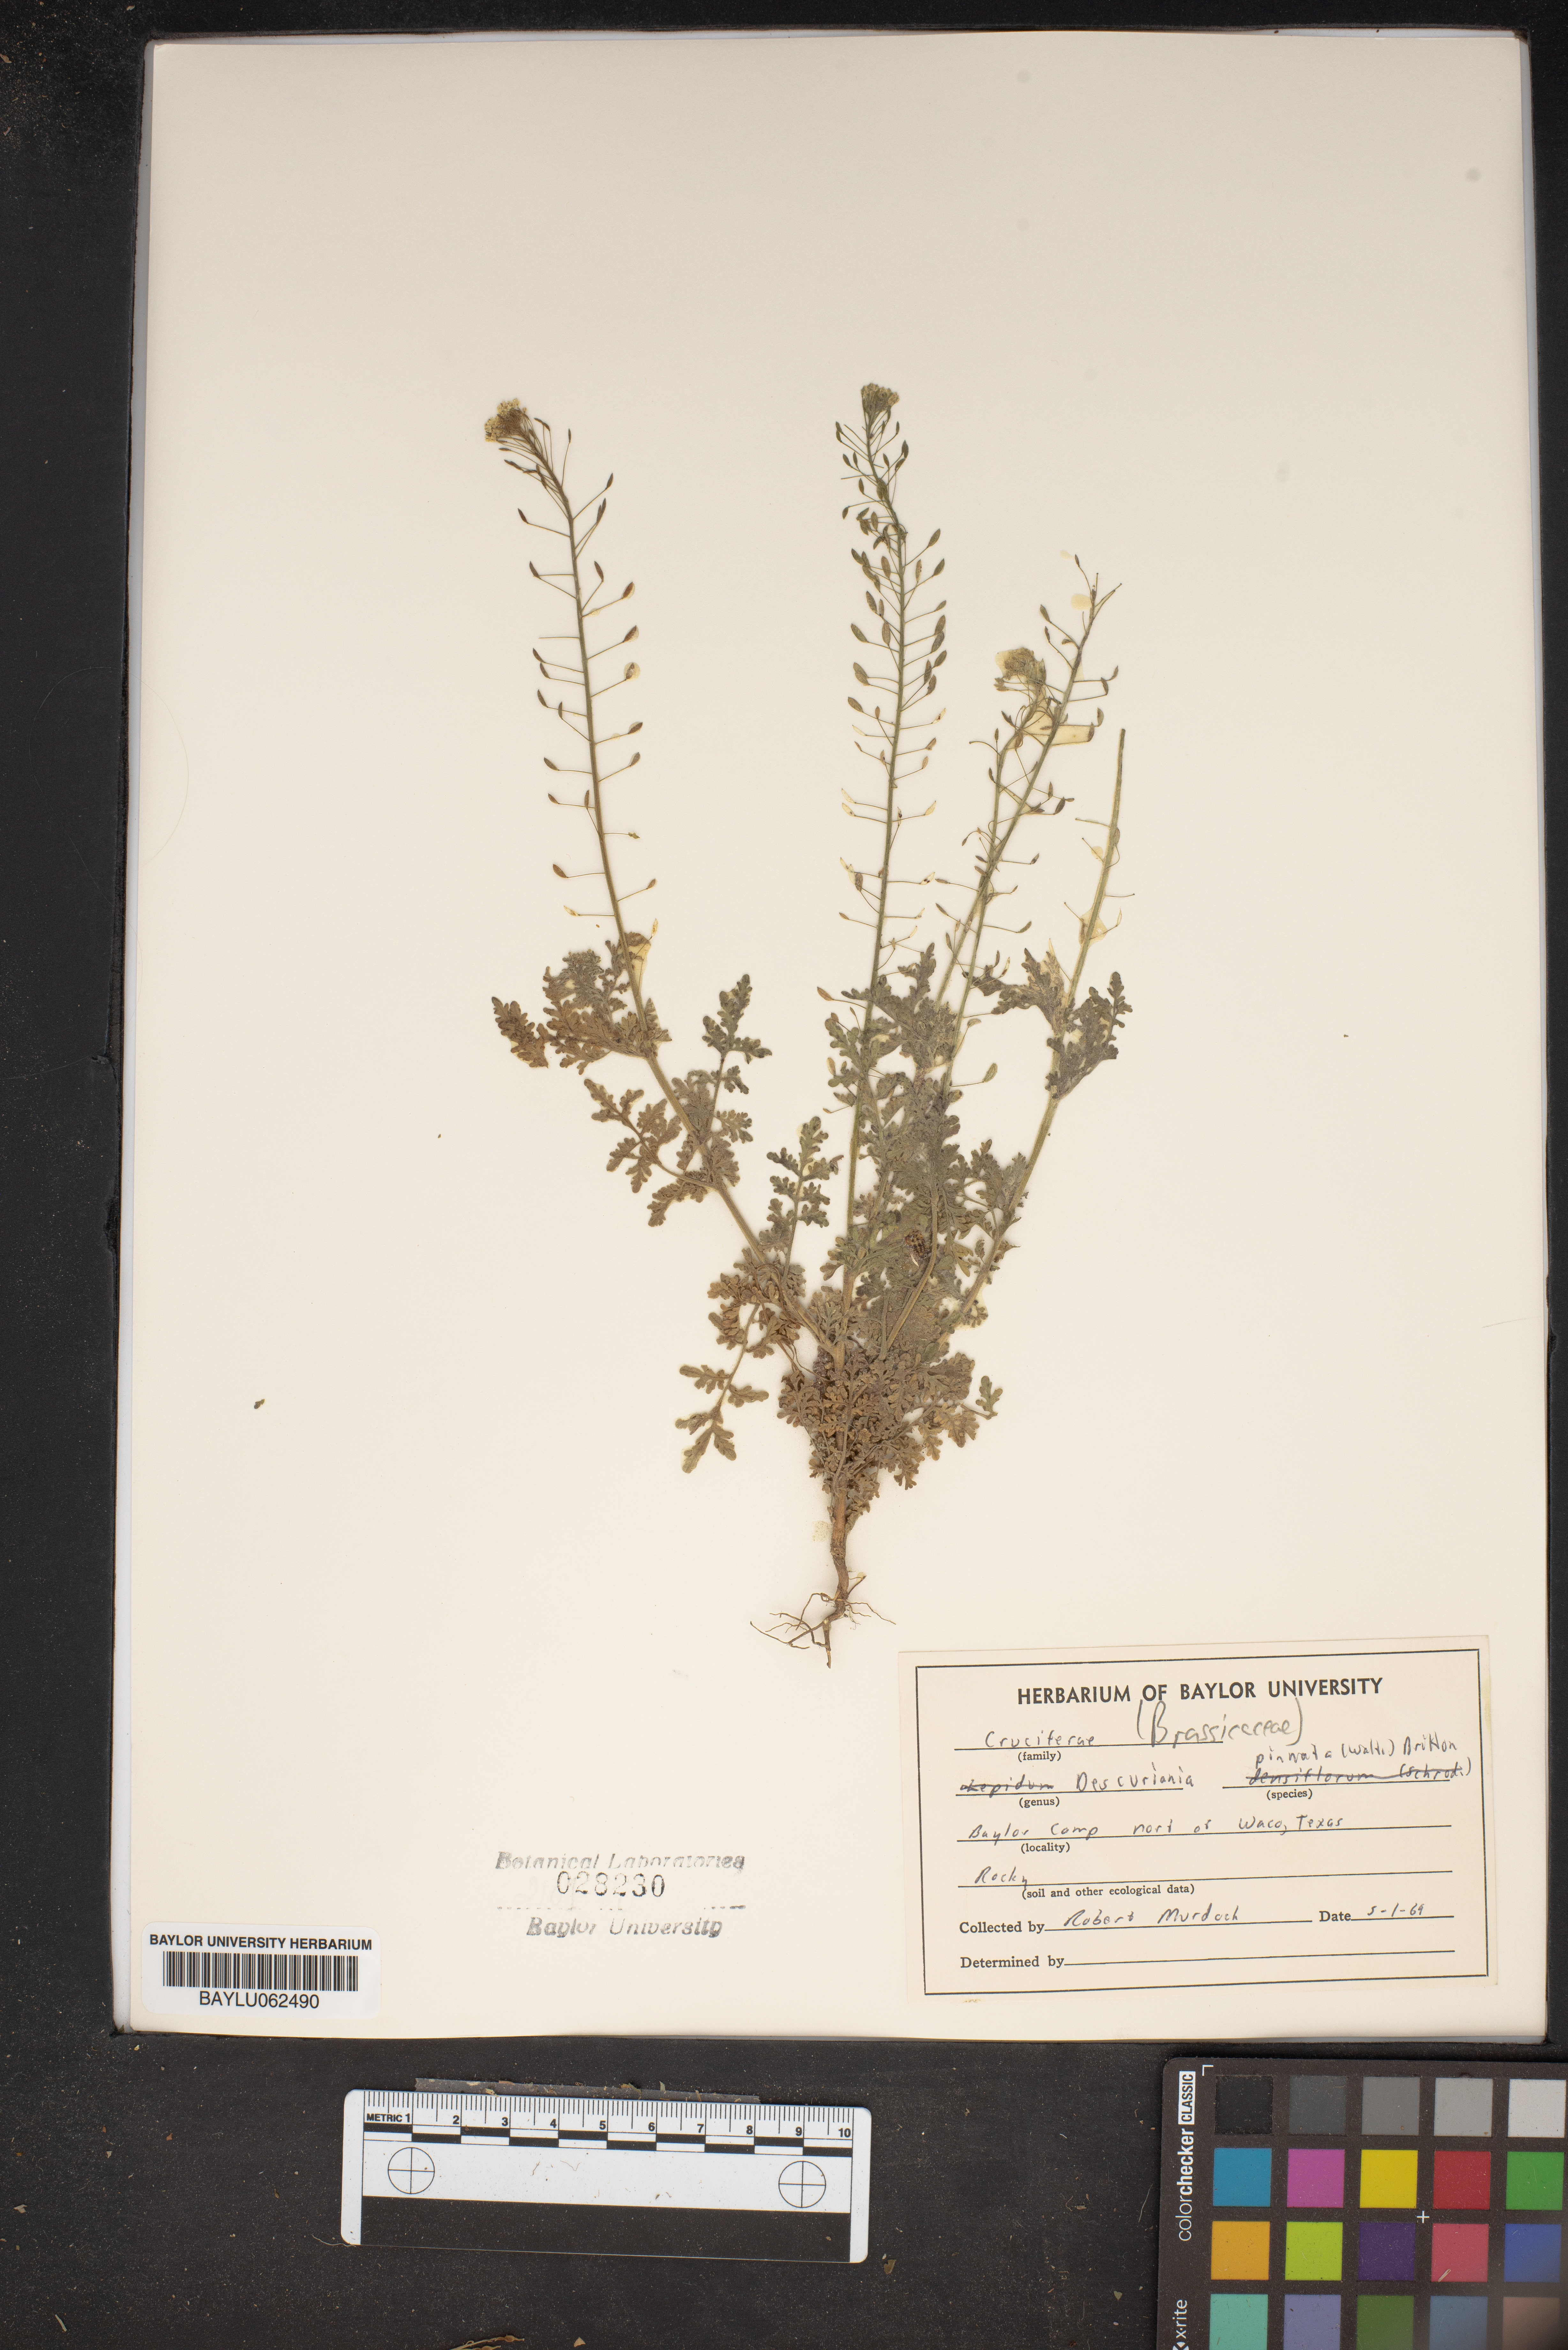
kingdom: Plantae
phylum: Tracheophyta
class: Magnoliopsida
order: Brassicales
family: Brassicaceae
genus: Descurainia
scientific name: Descurainia pinnata
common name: Western tansy mustard
